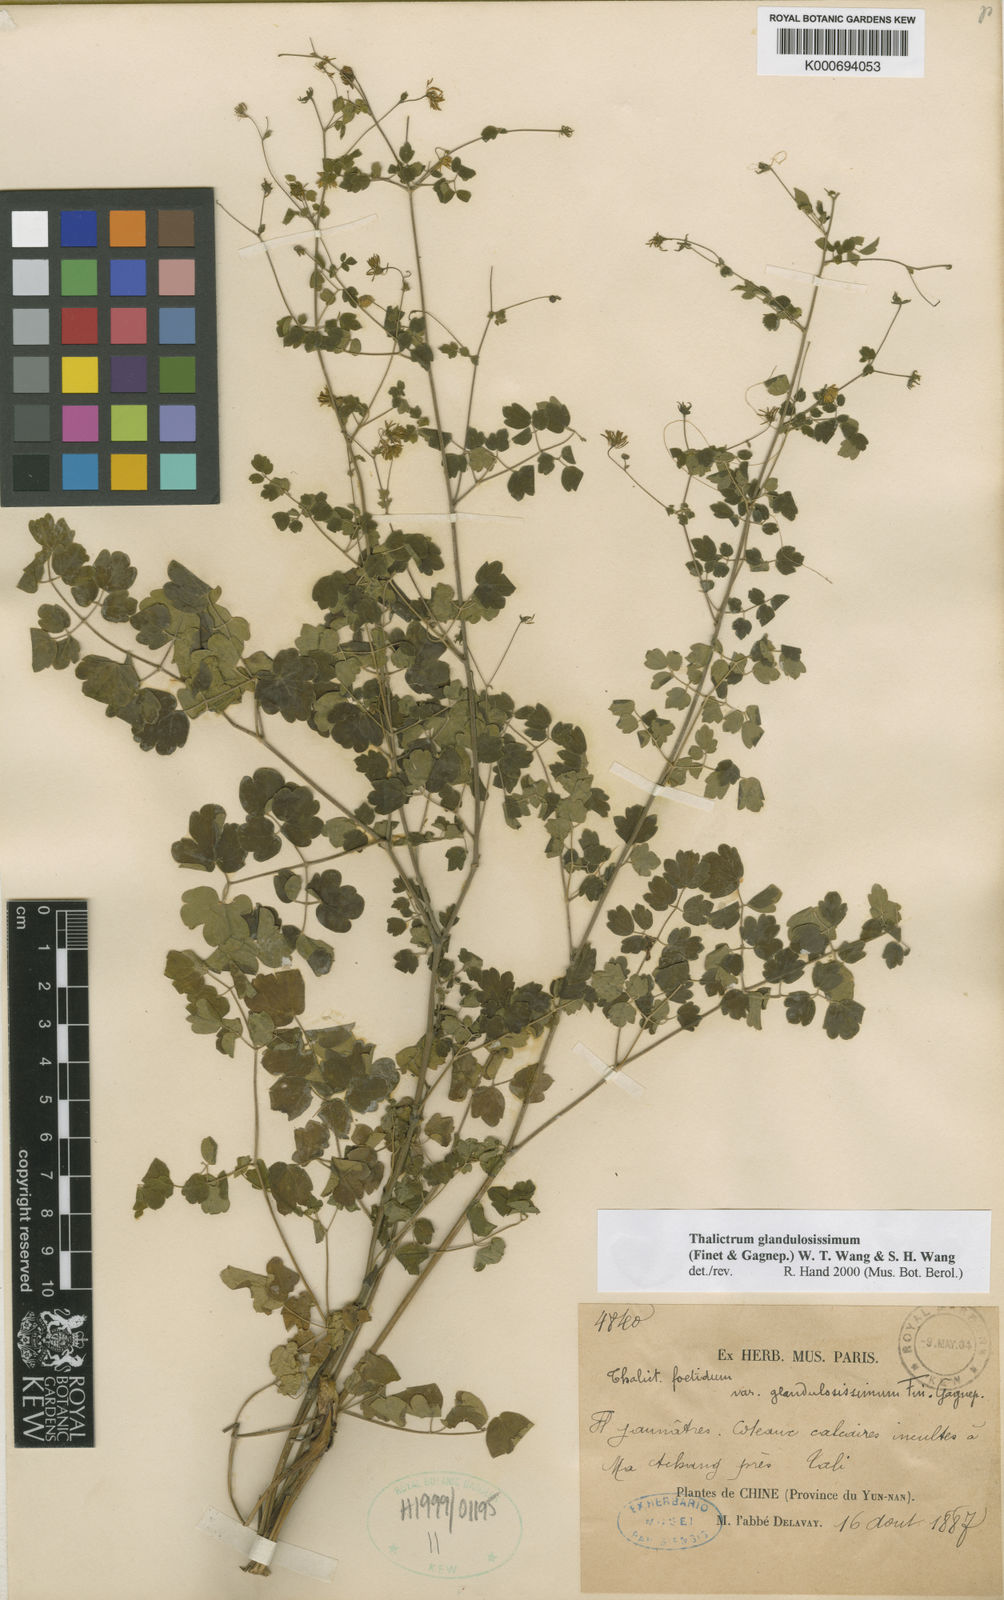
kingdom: Plantae
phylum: Tracheophyta
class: Magnoliopsida
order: Ranunculales
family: Ranunculaceae
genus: Thalictrum
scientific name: Thalictrum foetidum
